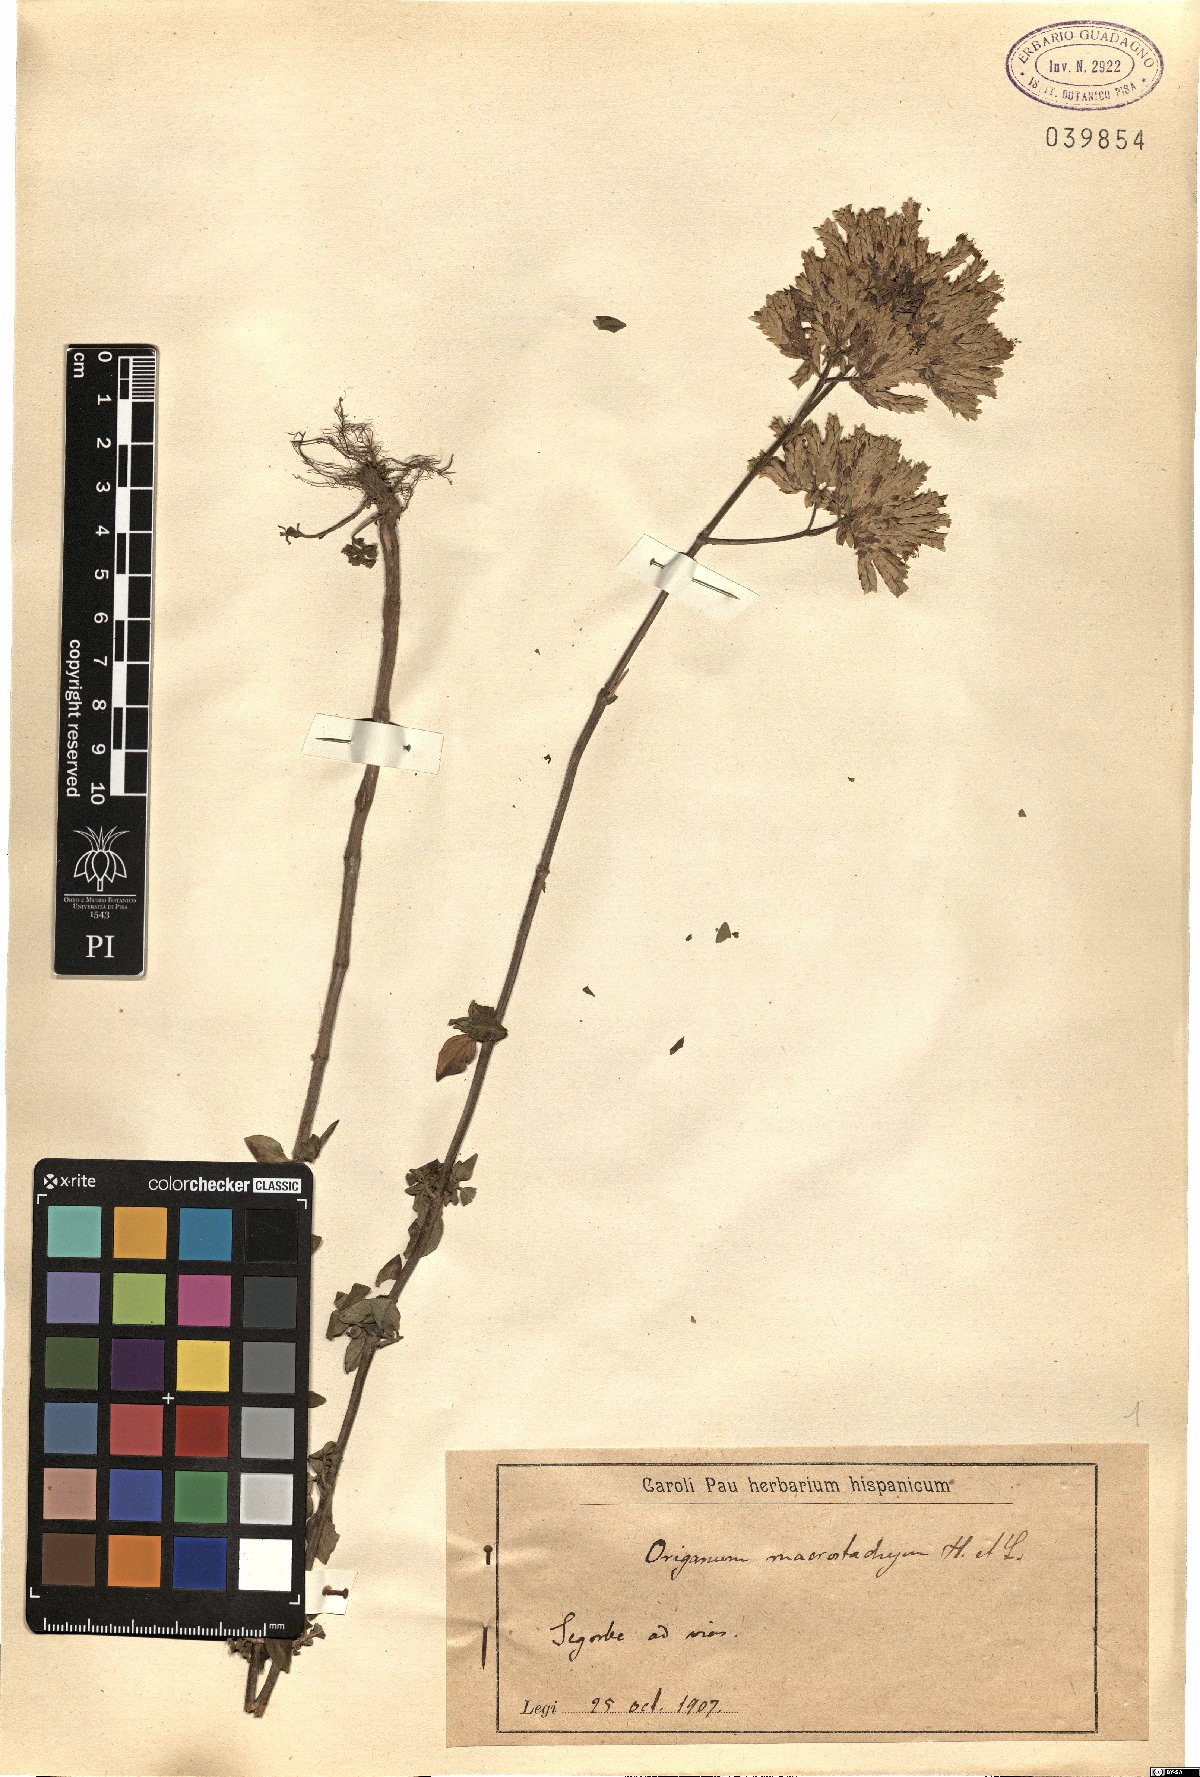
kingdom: Plantae
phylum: Tracheophyta
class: Magnoliopsida
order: Lamiales
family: Lamiaceae
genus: Origanum
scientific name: Origanum vulgare
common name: Wild marjoram
